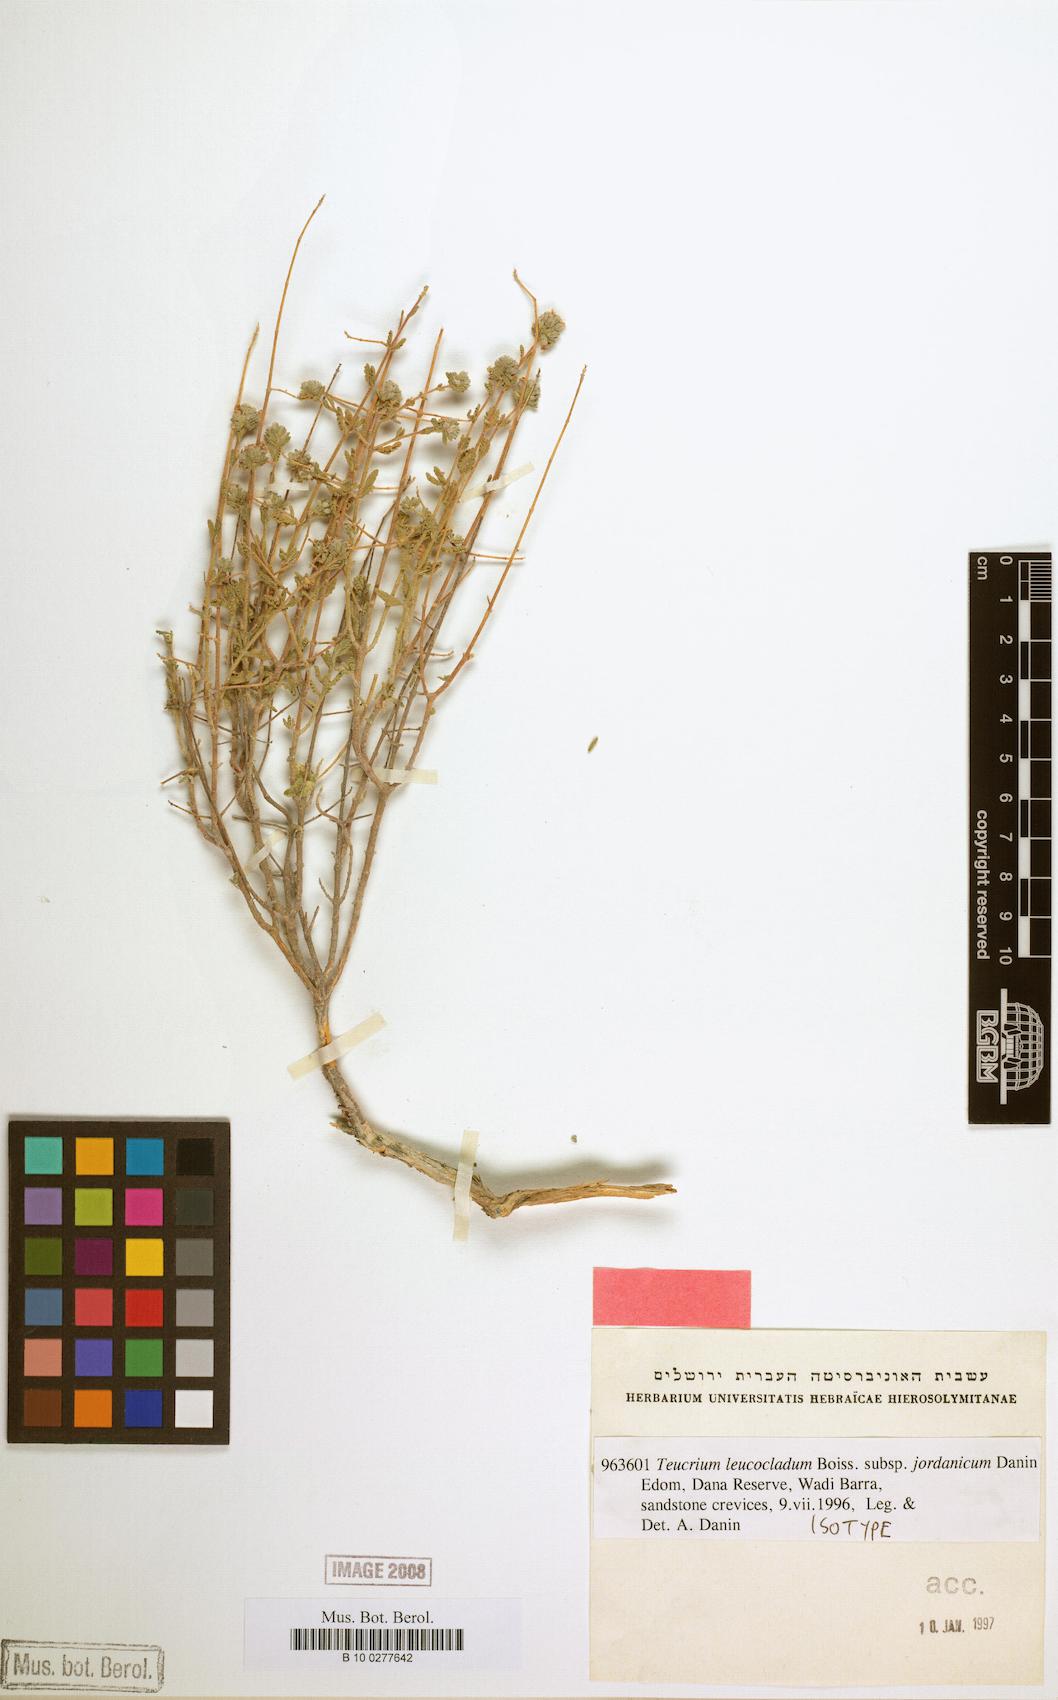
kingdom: Plantae
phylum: Tracheophyta
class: Magnoliopsida
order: Lamiales
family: Lamiaceae
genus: Teucrium
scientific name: Teucrium jordanicum
